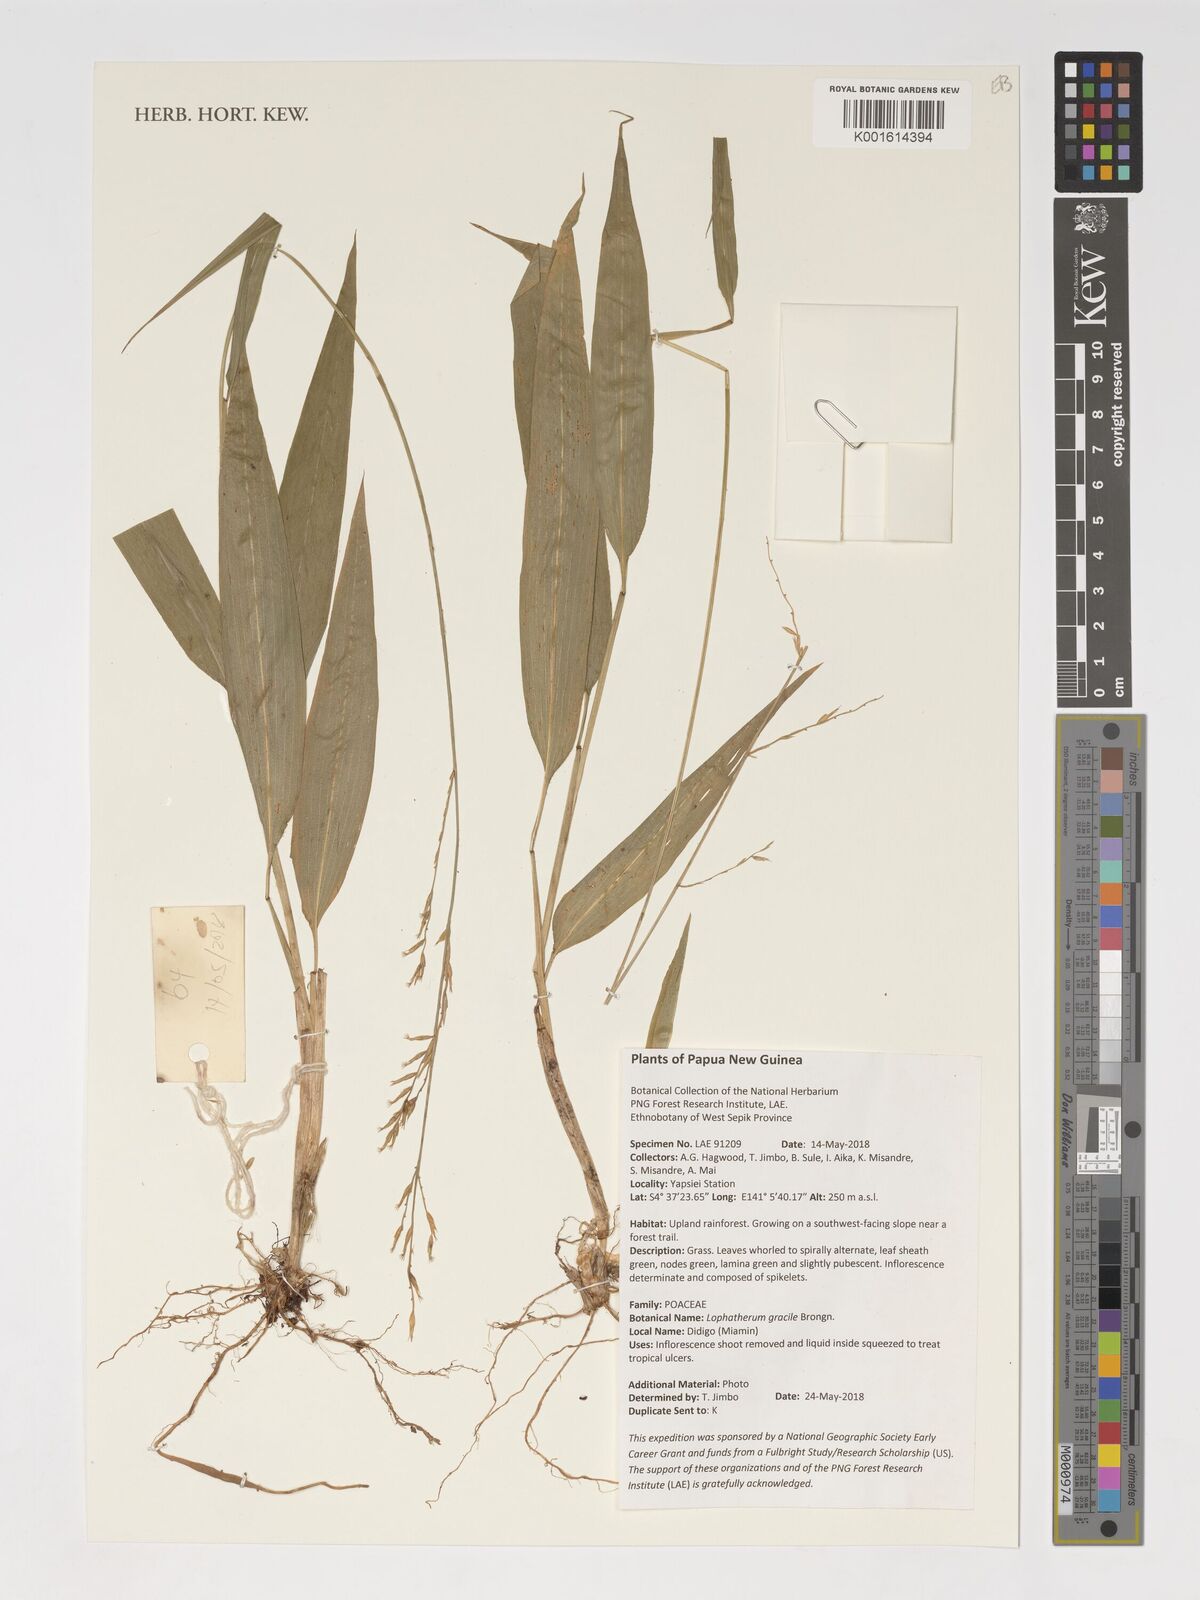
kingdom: Plantae
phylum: Tracheophyta
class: Liliopsida
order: Poales
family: Poaceae
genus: Lophatherum
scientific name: Lophatherum gracile
